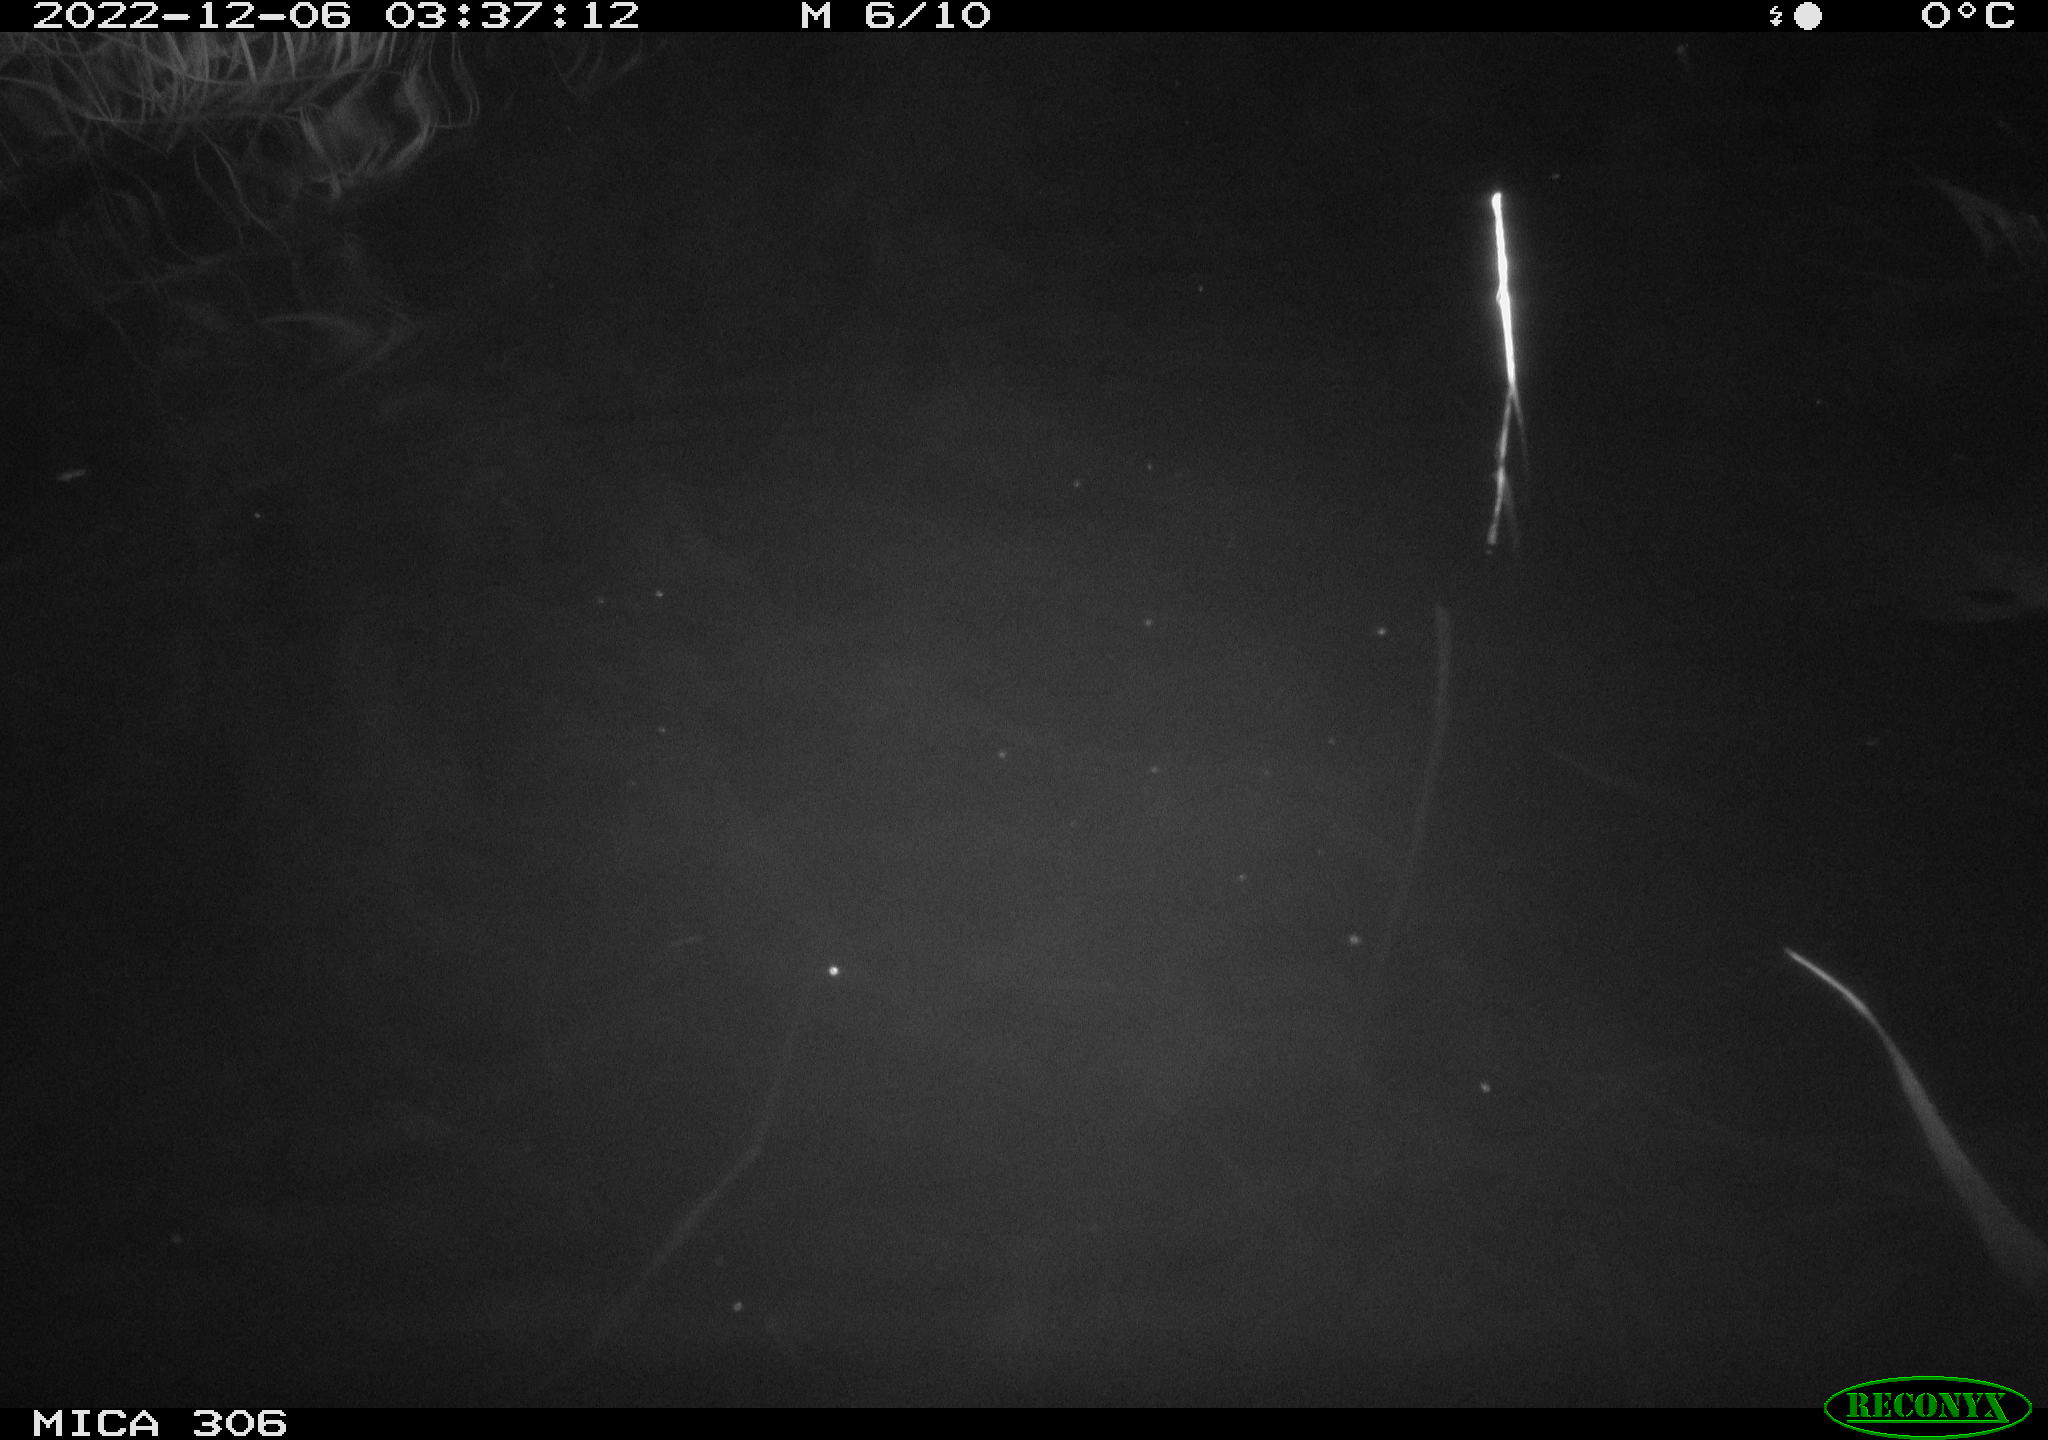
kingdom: Animalia
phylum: Chordata
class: Mammalia
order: Rodentia
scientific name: Rodentia
